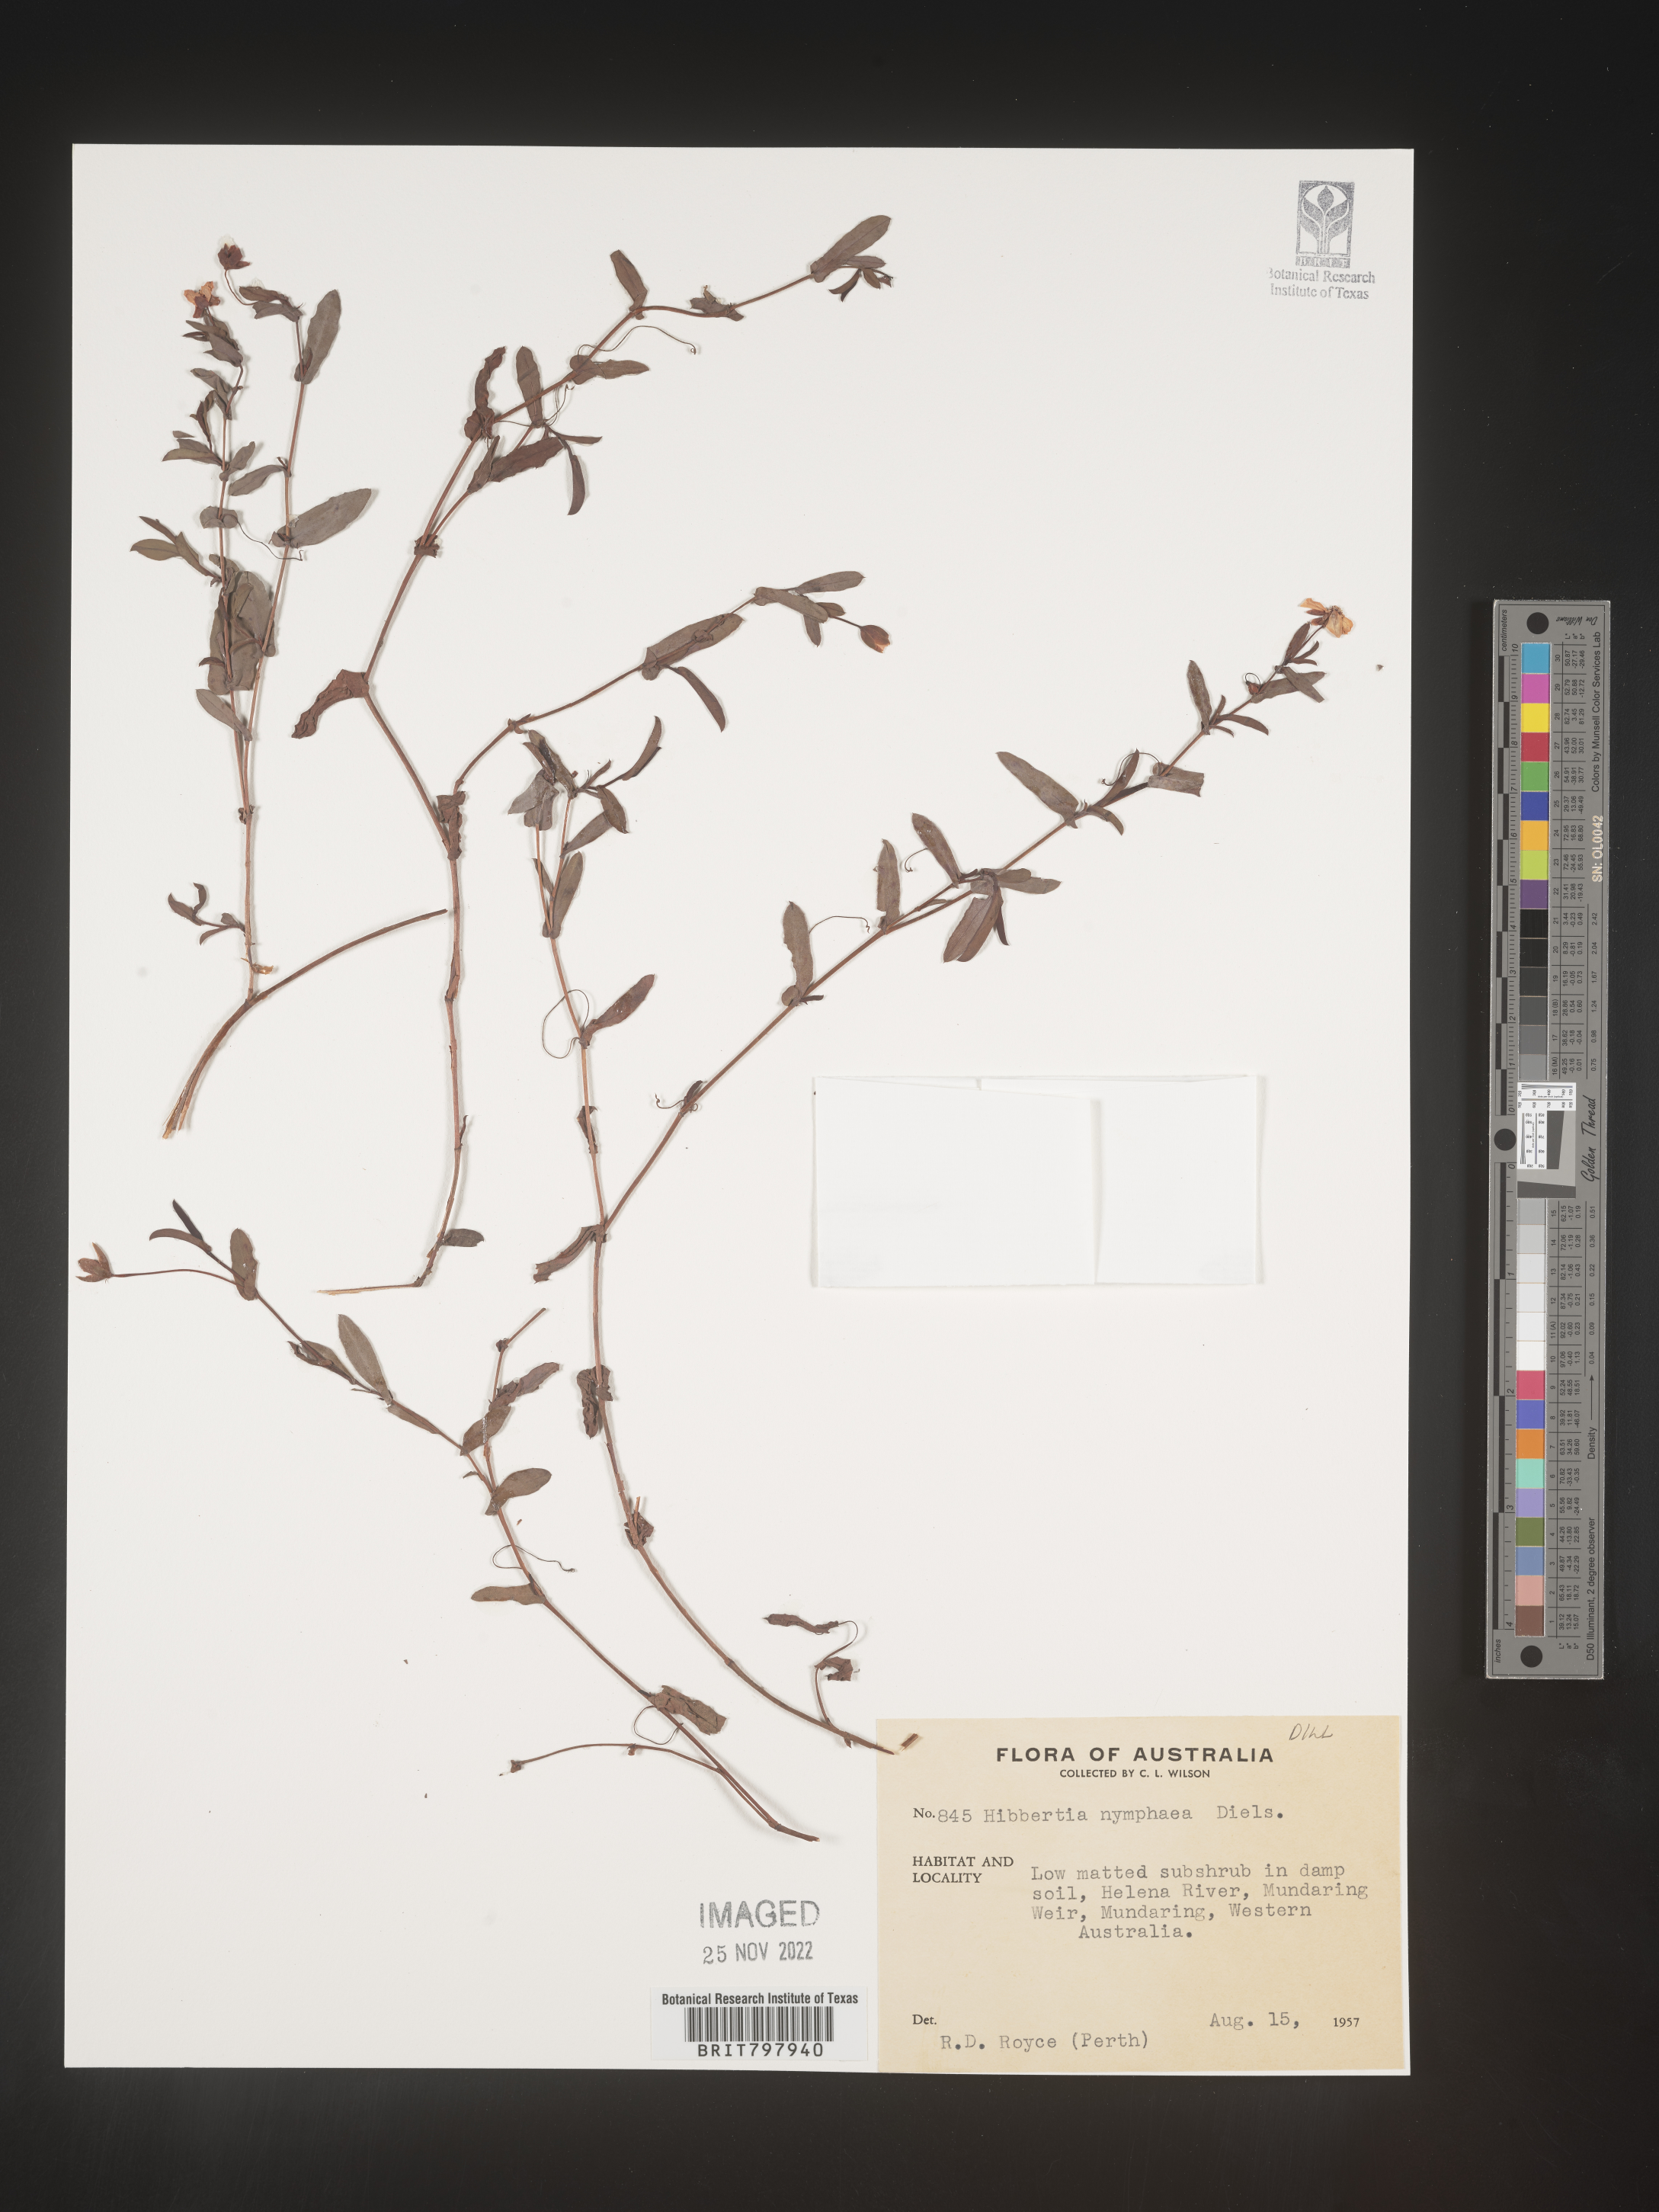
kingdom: Plantae
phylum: Tracheophyta
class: Magnoliopsida
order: Dilleniales
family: Dilleniaceae
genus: Hibbertia
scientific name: Hibbertia
